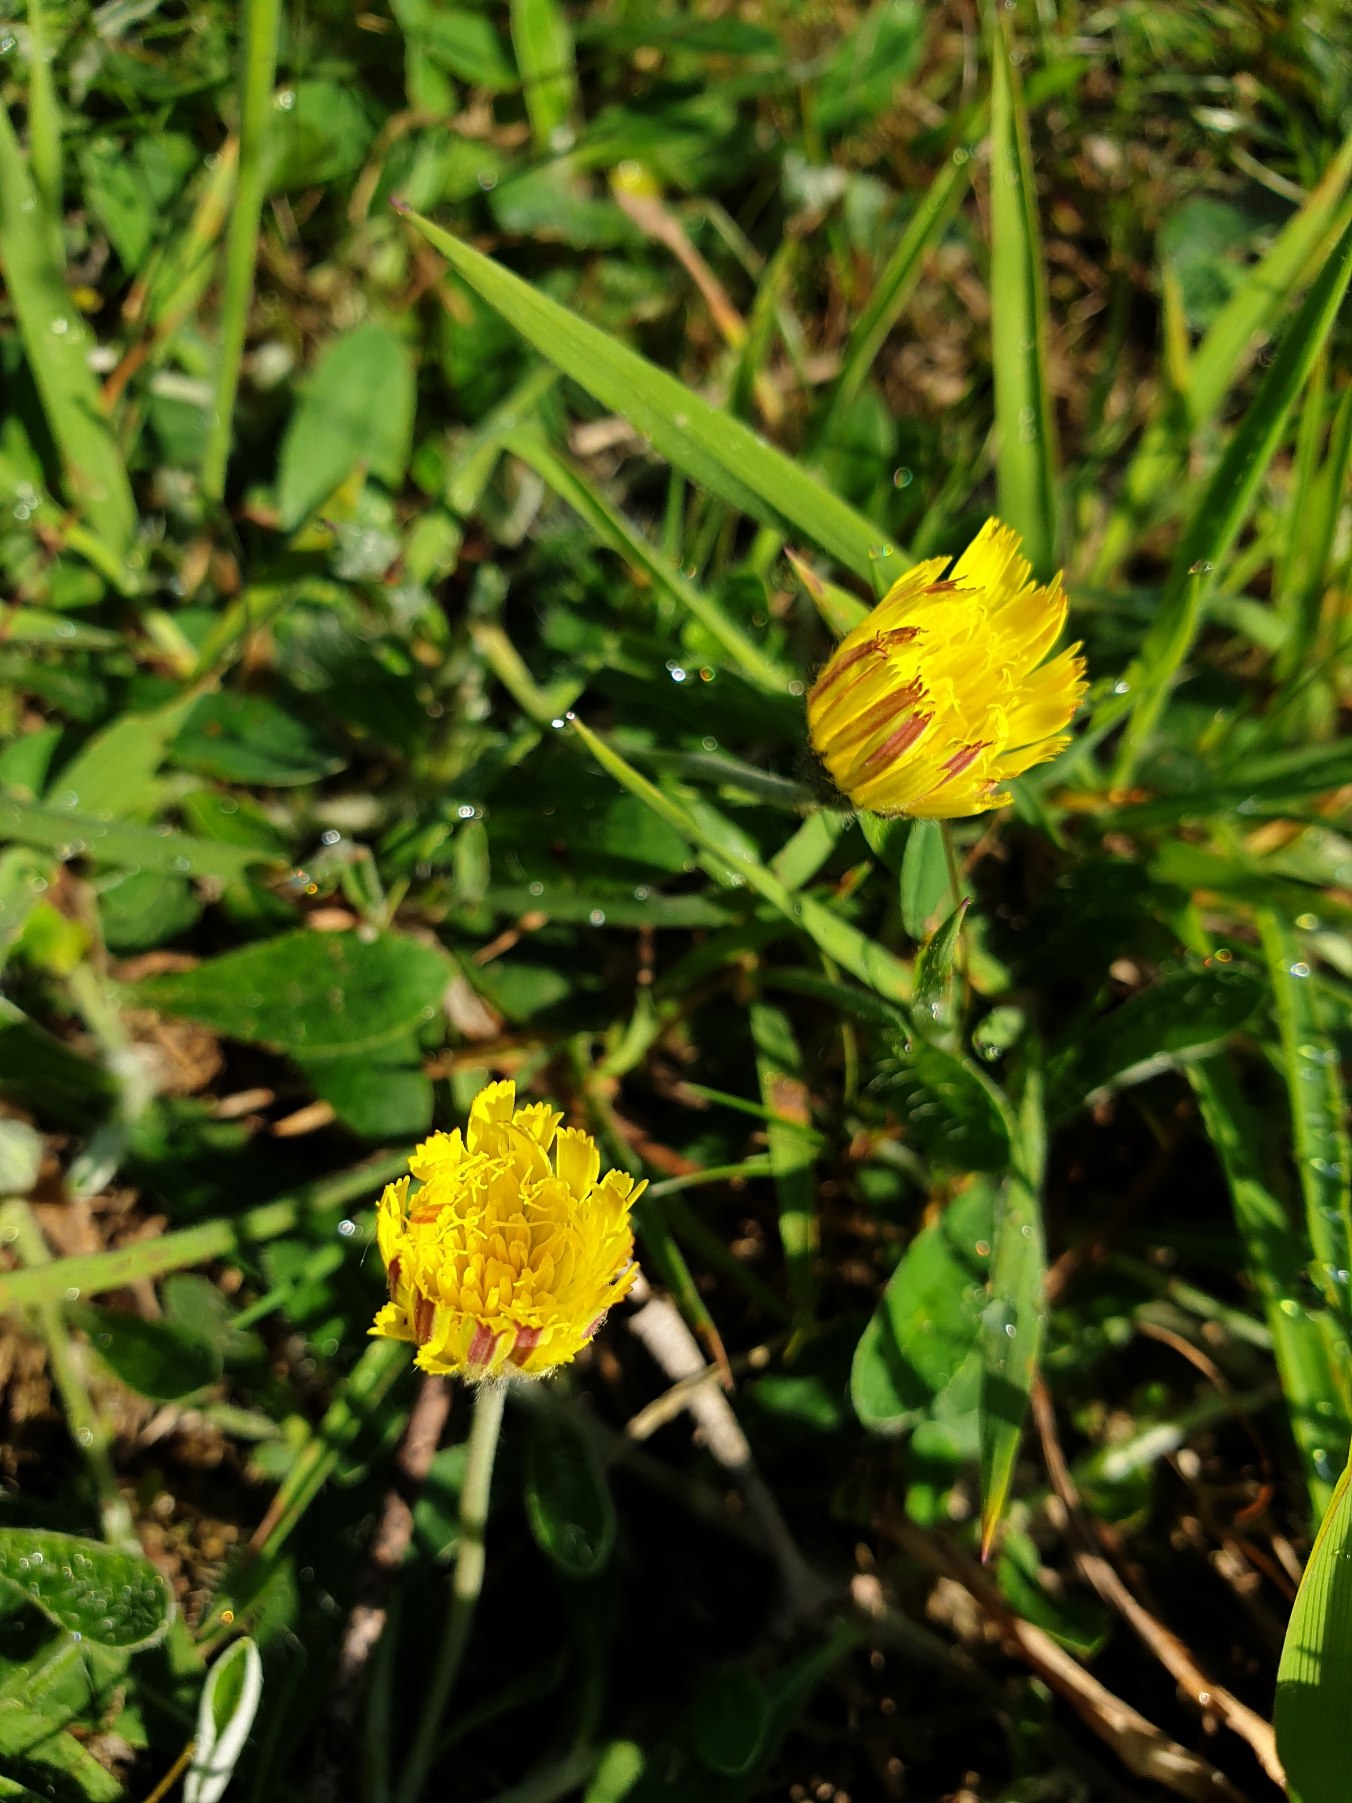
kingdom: Plantae
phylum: Tracheophyta
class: Magnoliopsida
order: Asterales
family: Asteraceae
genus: Pilosella
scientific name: Pilosella officinarum
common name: Håret høgeurt
